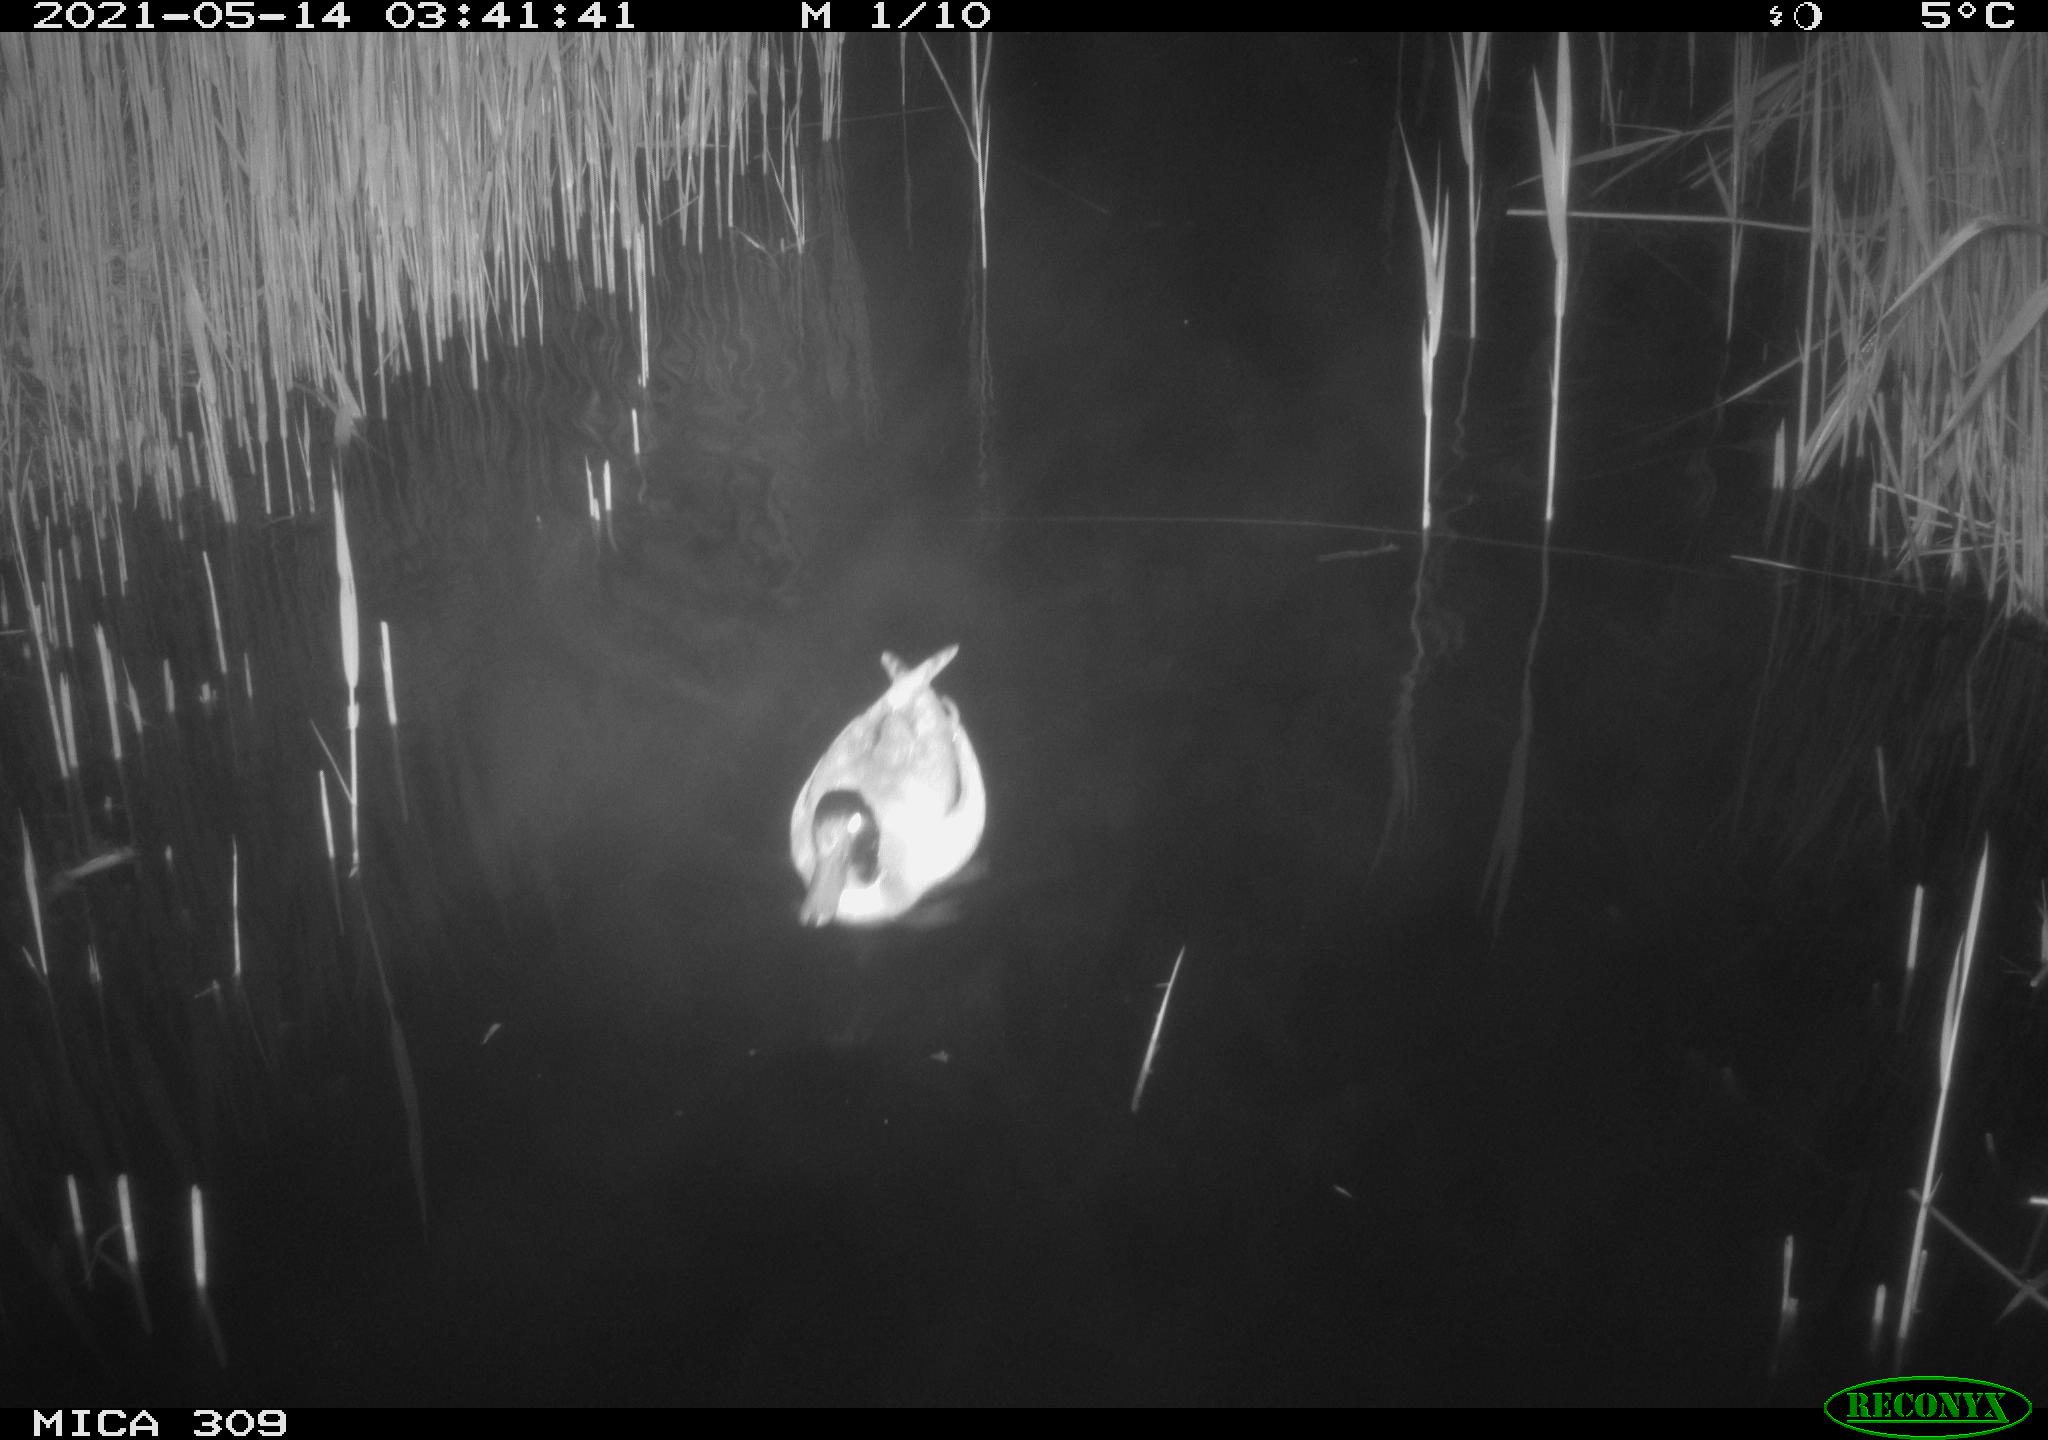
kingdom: Animalia
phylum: Chordata
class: Aves
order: Anseriformes
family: Anatidae
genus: Anas
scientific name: Anas platyrhynchos
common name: Mallard
